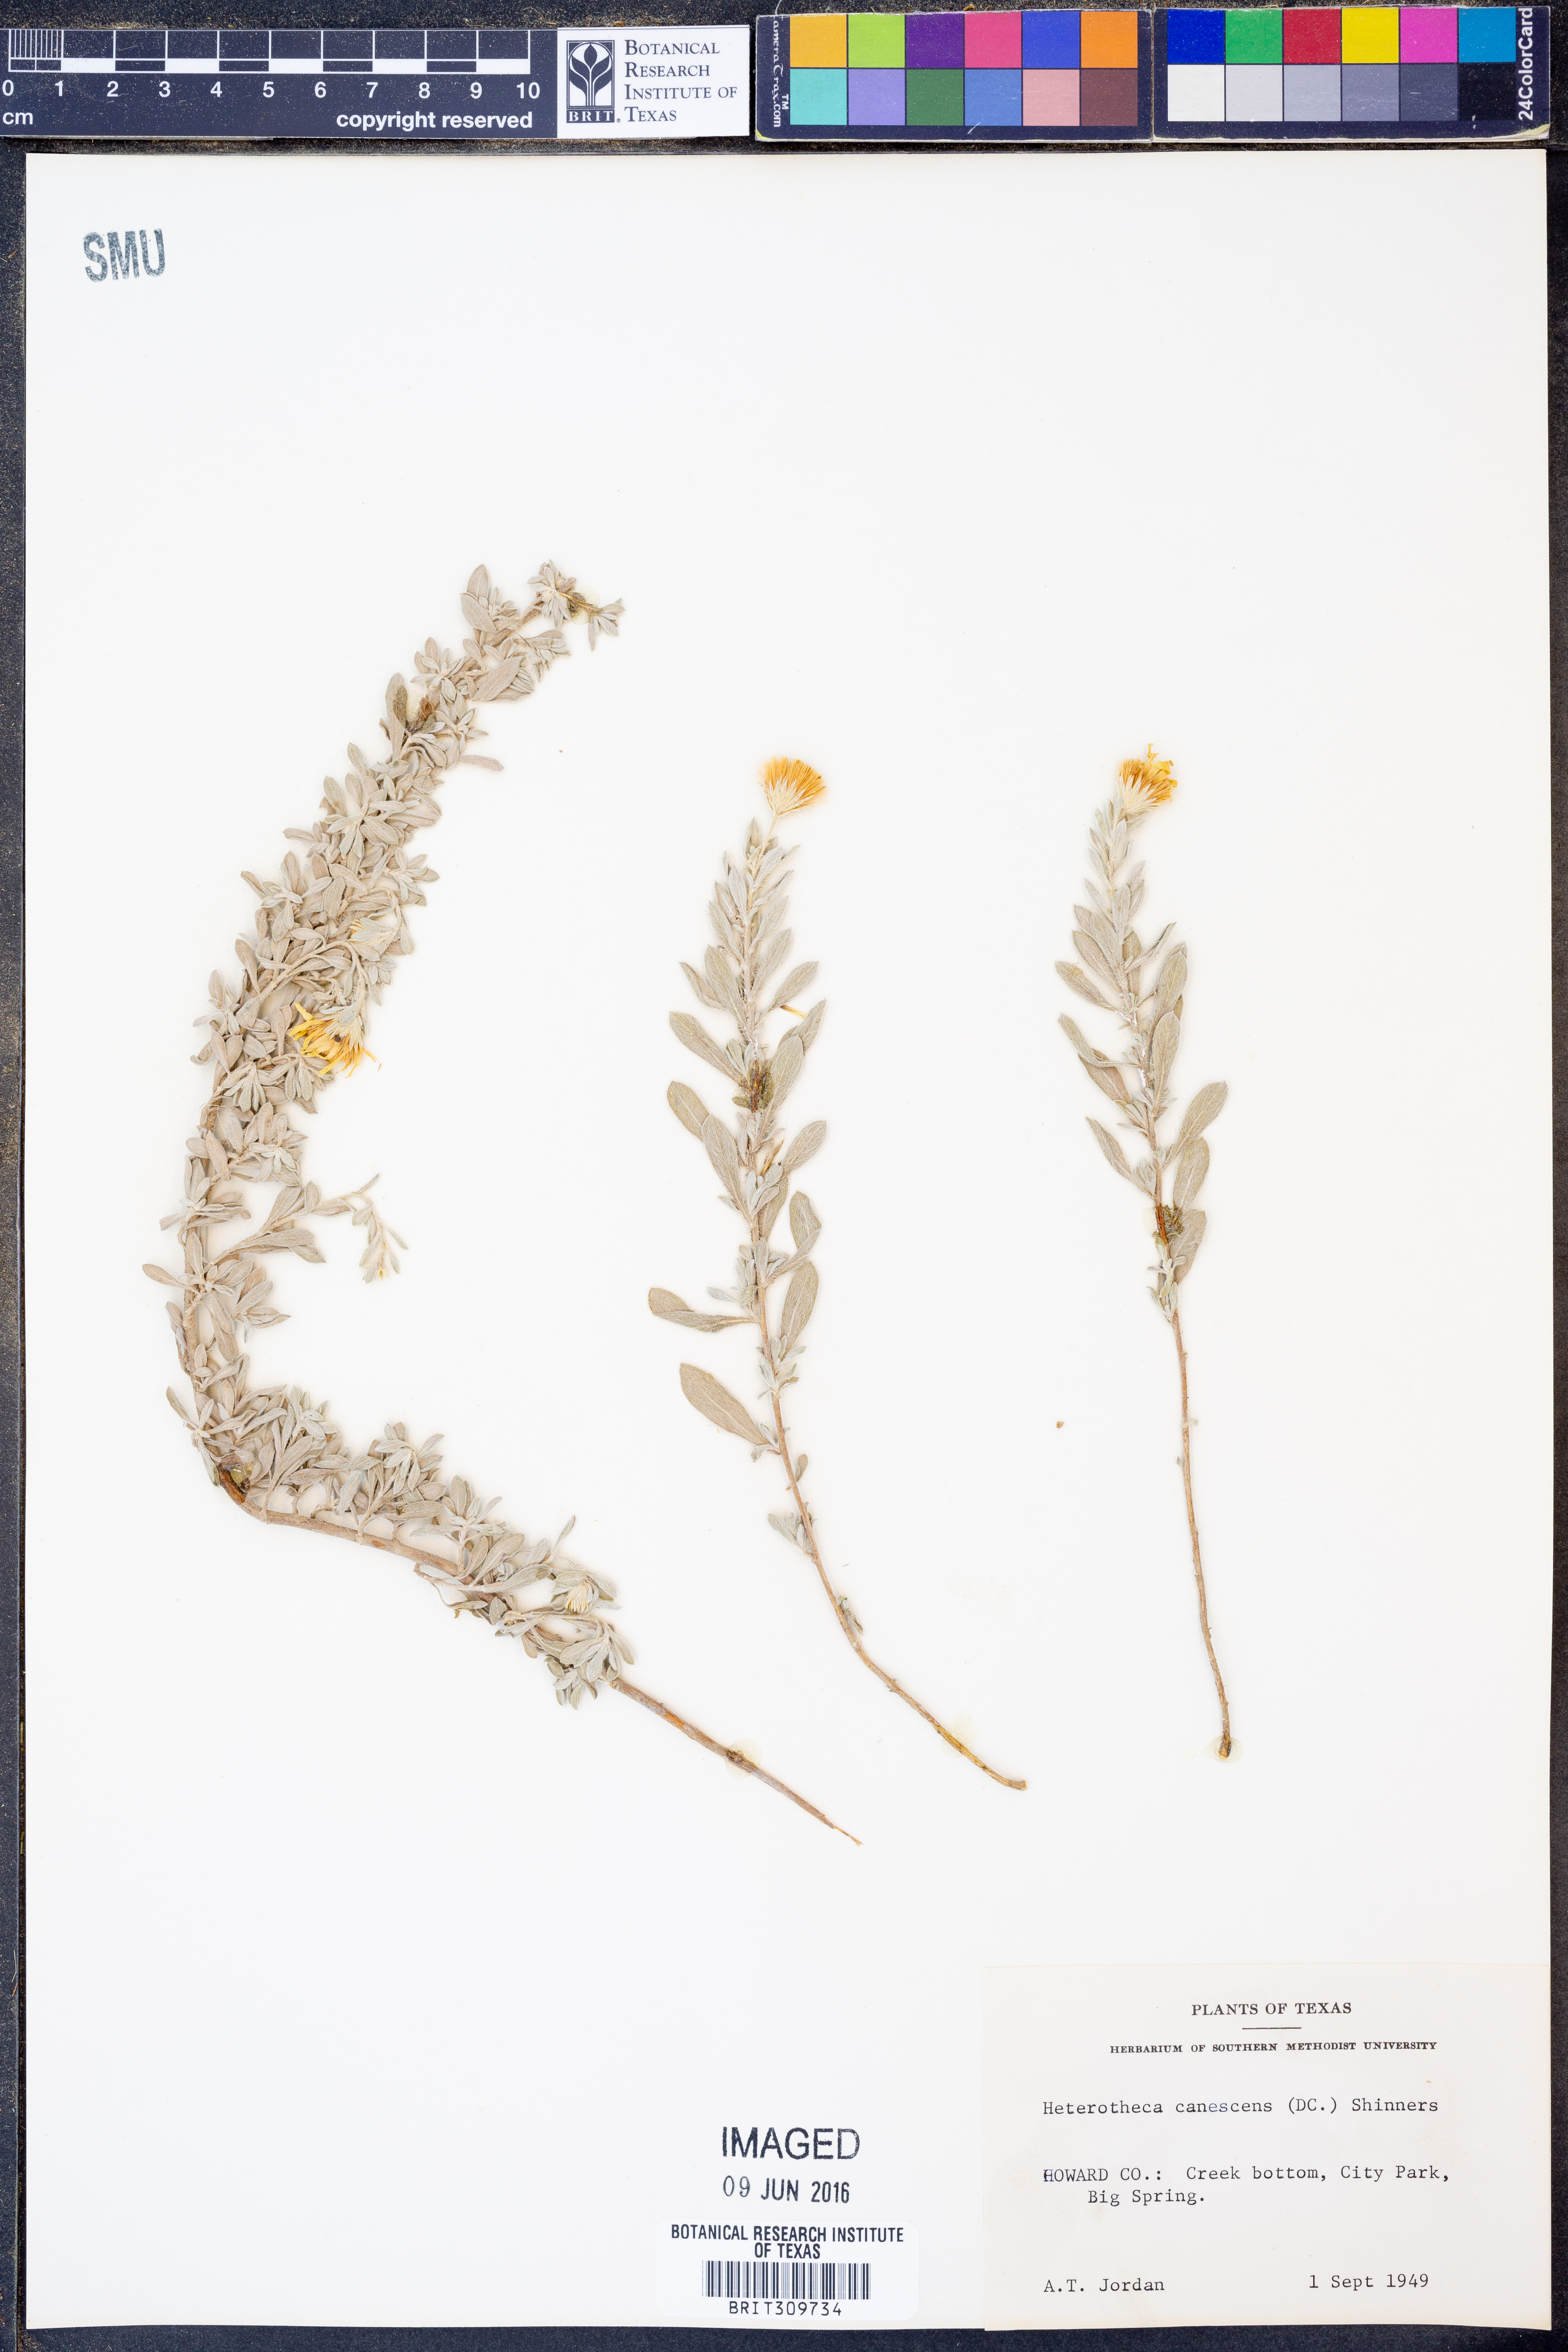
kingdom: Plantae
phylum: Tracheophyta
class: Magnoliopsida
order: Asterales
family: Asteraceae
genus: Heterotheca
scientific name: Heterotheca canescens
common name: Hoary golden-aster
